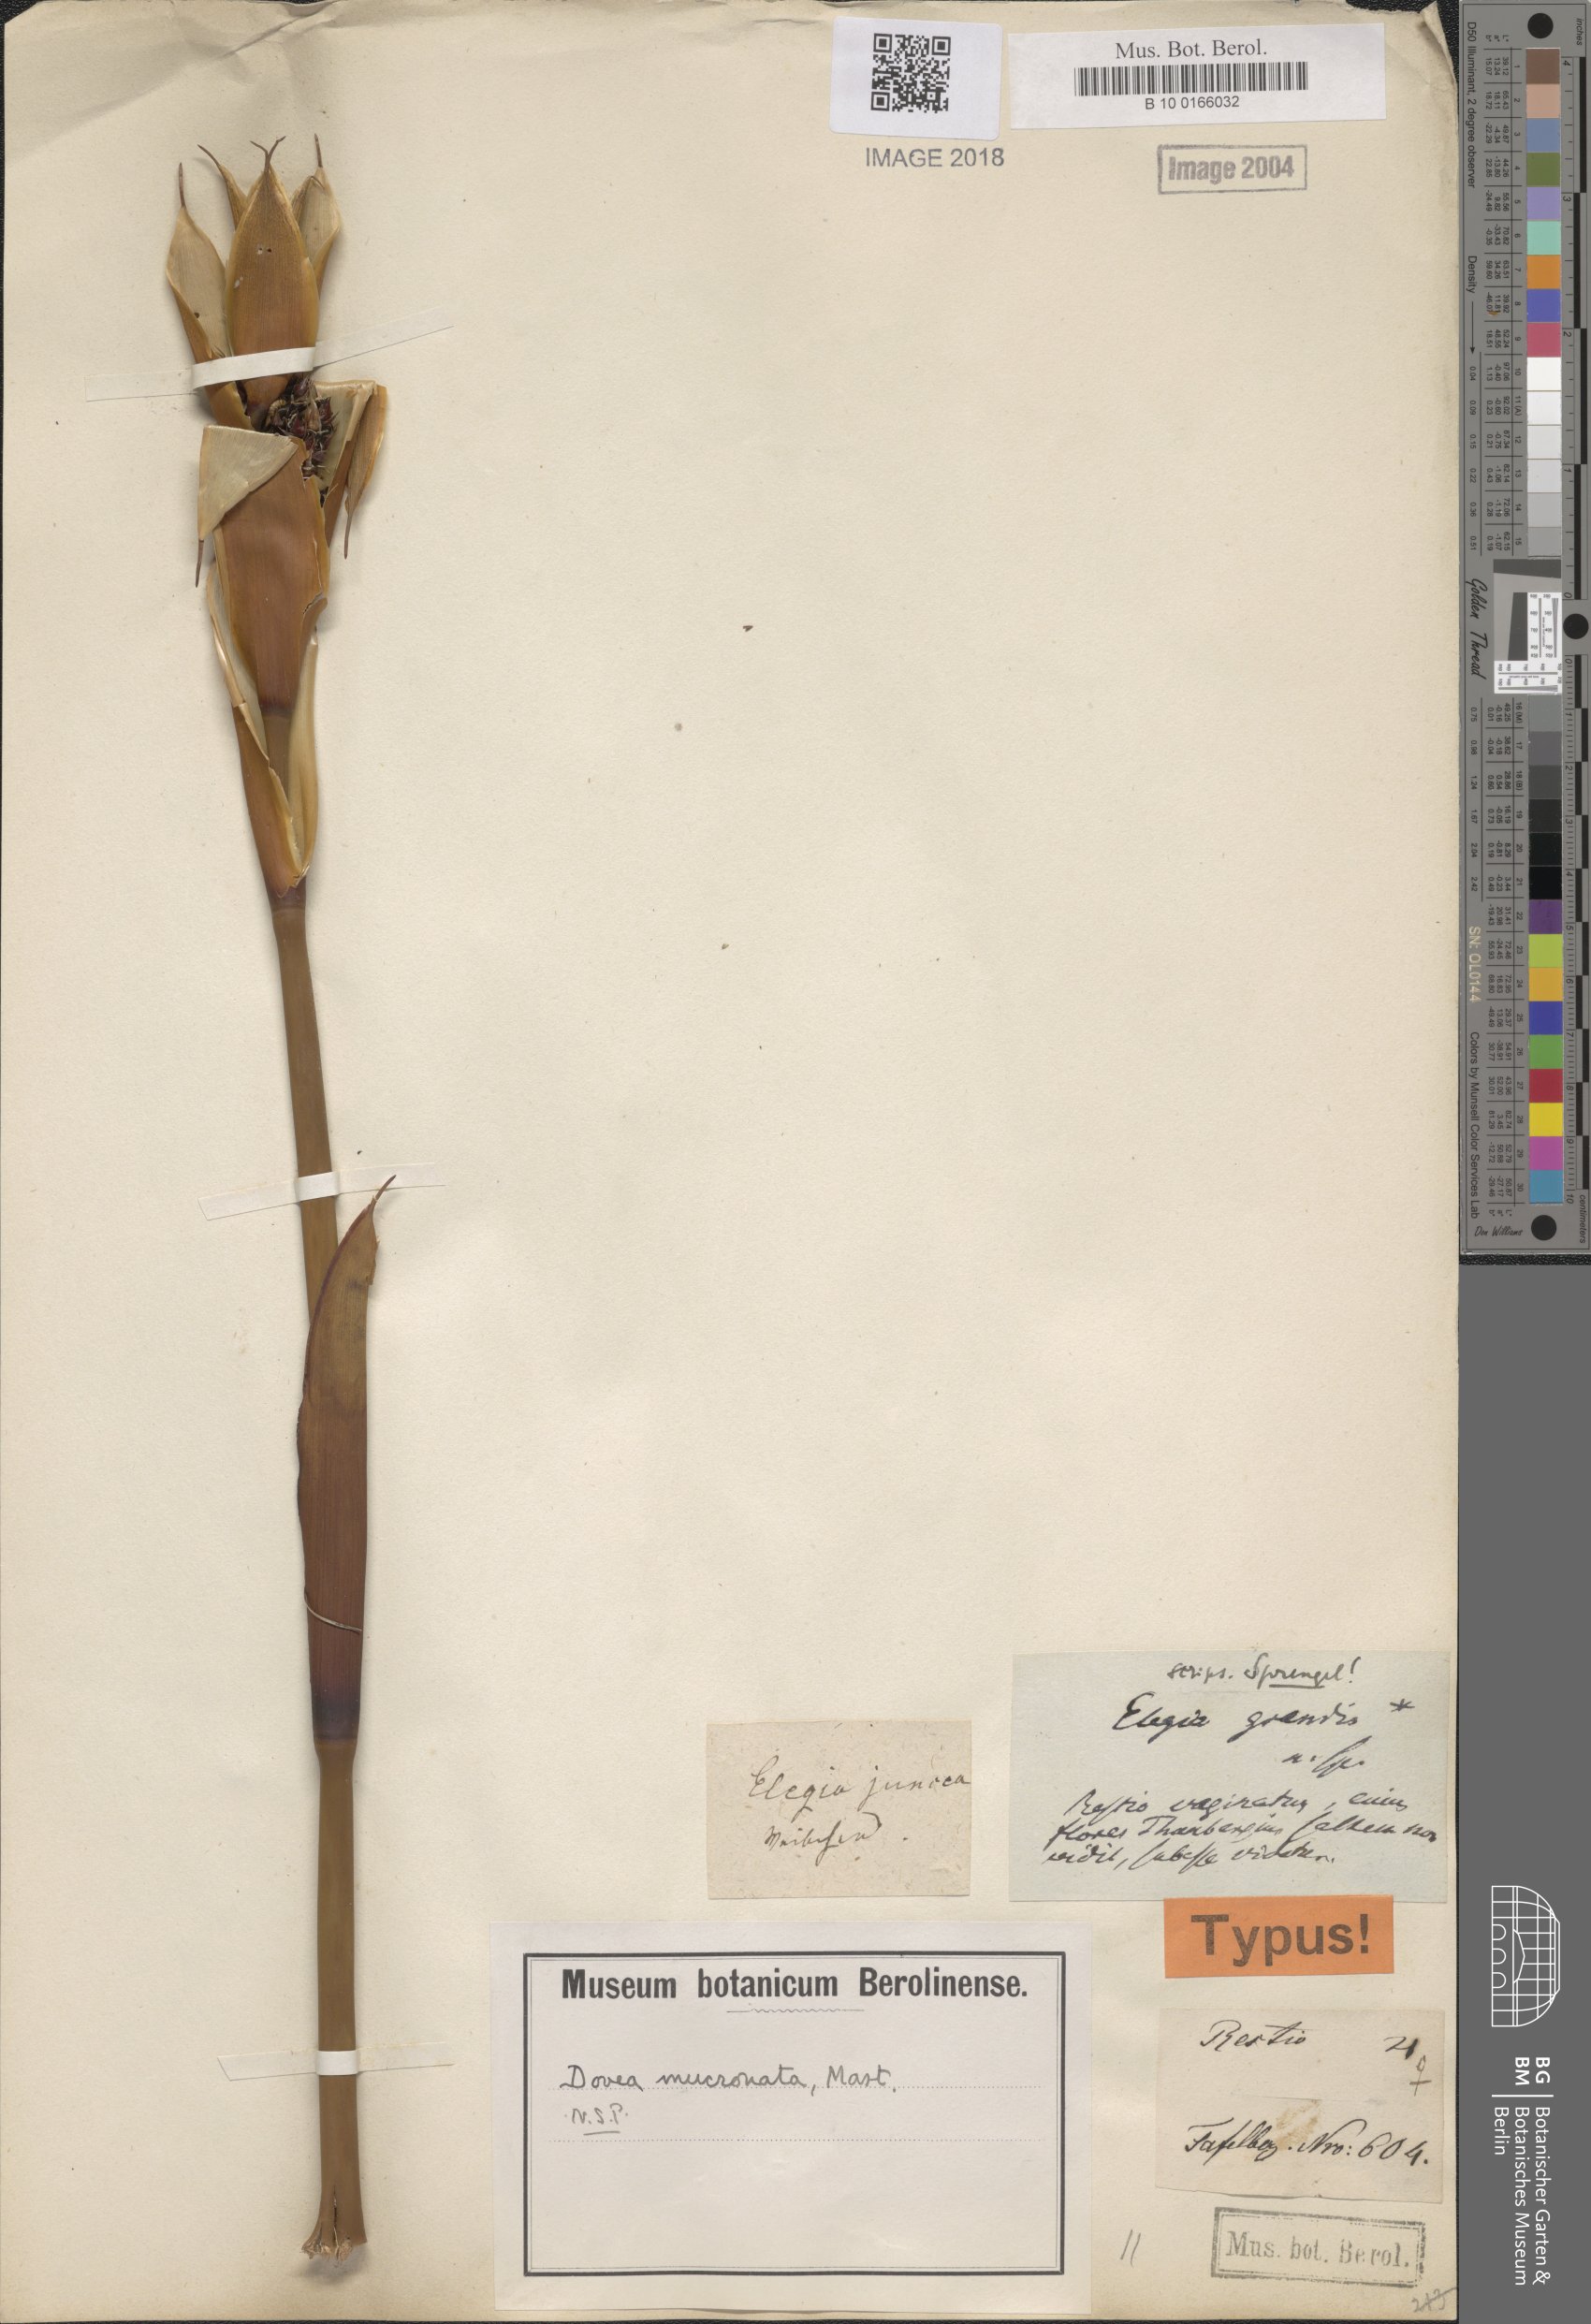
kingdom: Plantae
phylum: Tracheophyta
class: Liliopsida
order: Poales
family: Restionaceae
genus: Elegia
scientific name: Elegia mucronata
